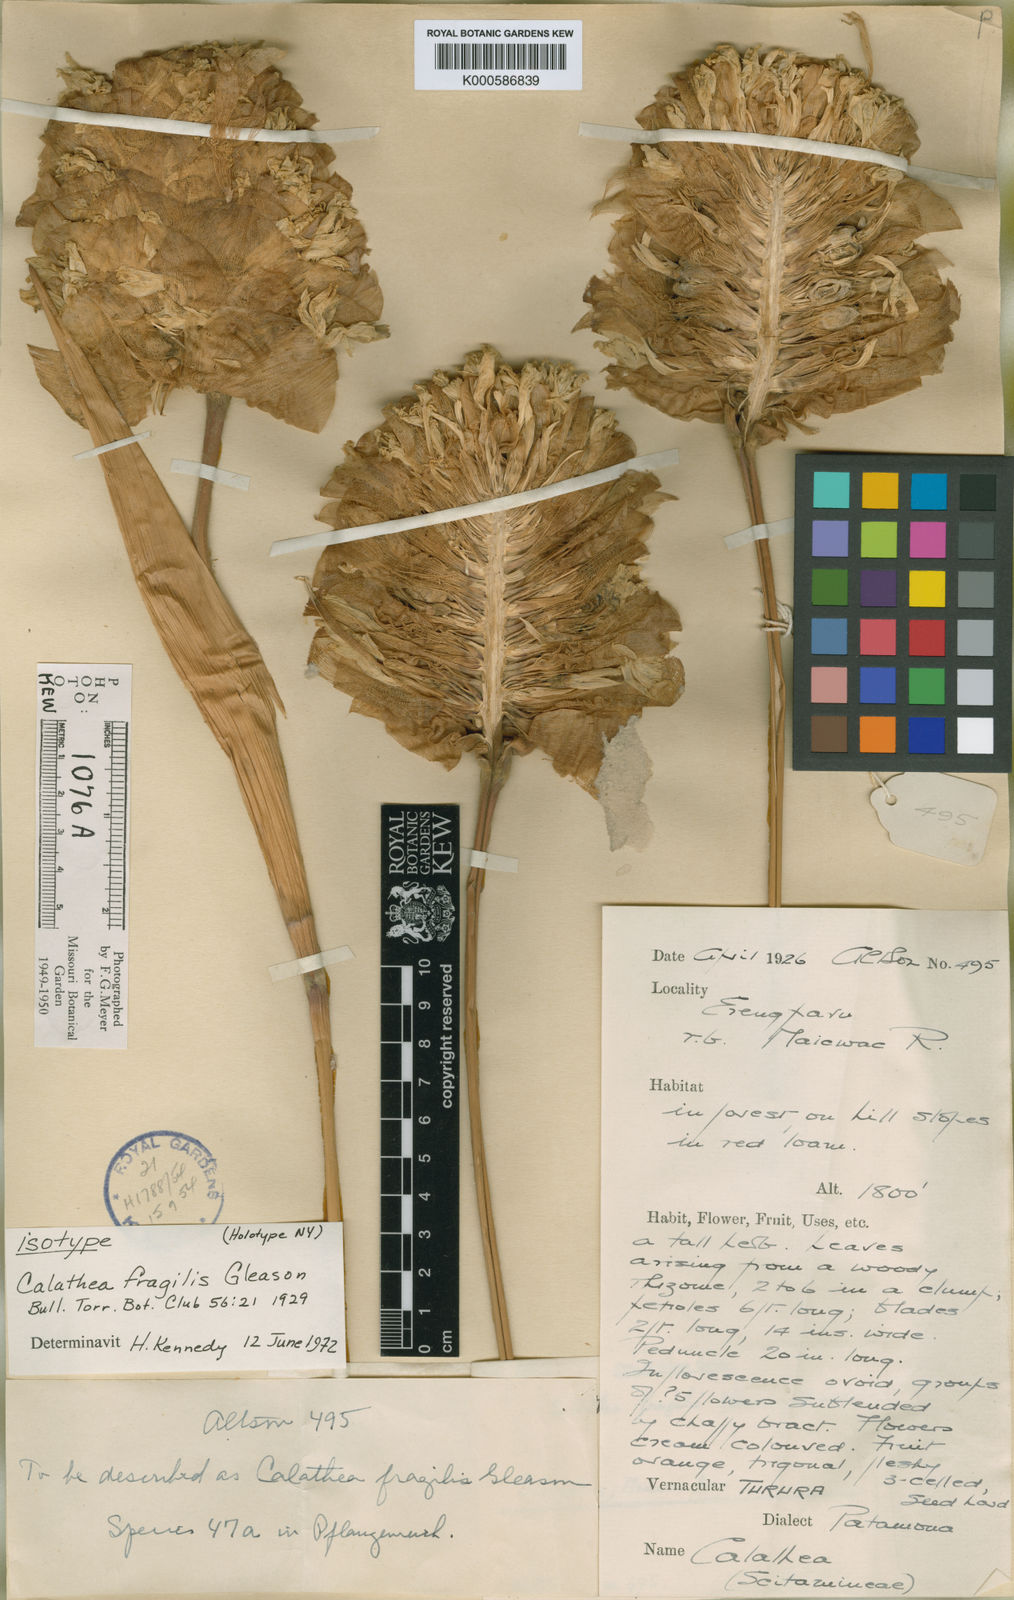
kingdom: Plantae
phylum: Tracheophyta
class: Liliopsida
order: Zingiberales
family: Marantaceae
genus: Goeppertia
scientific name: Goeppertia fragilis
